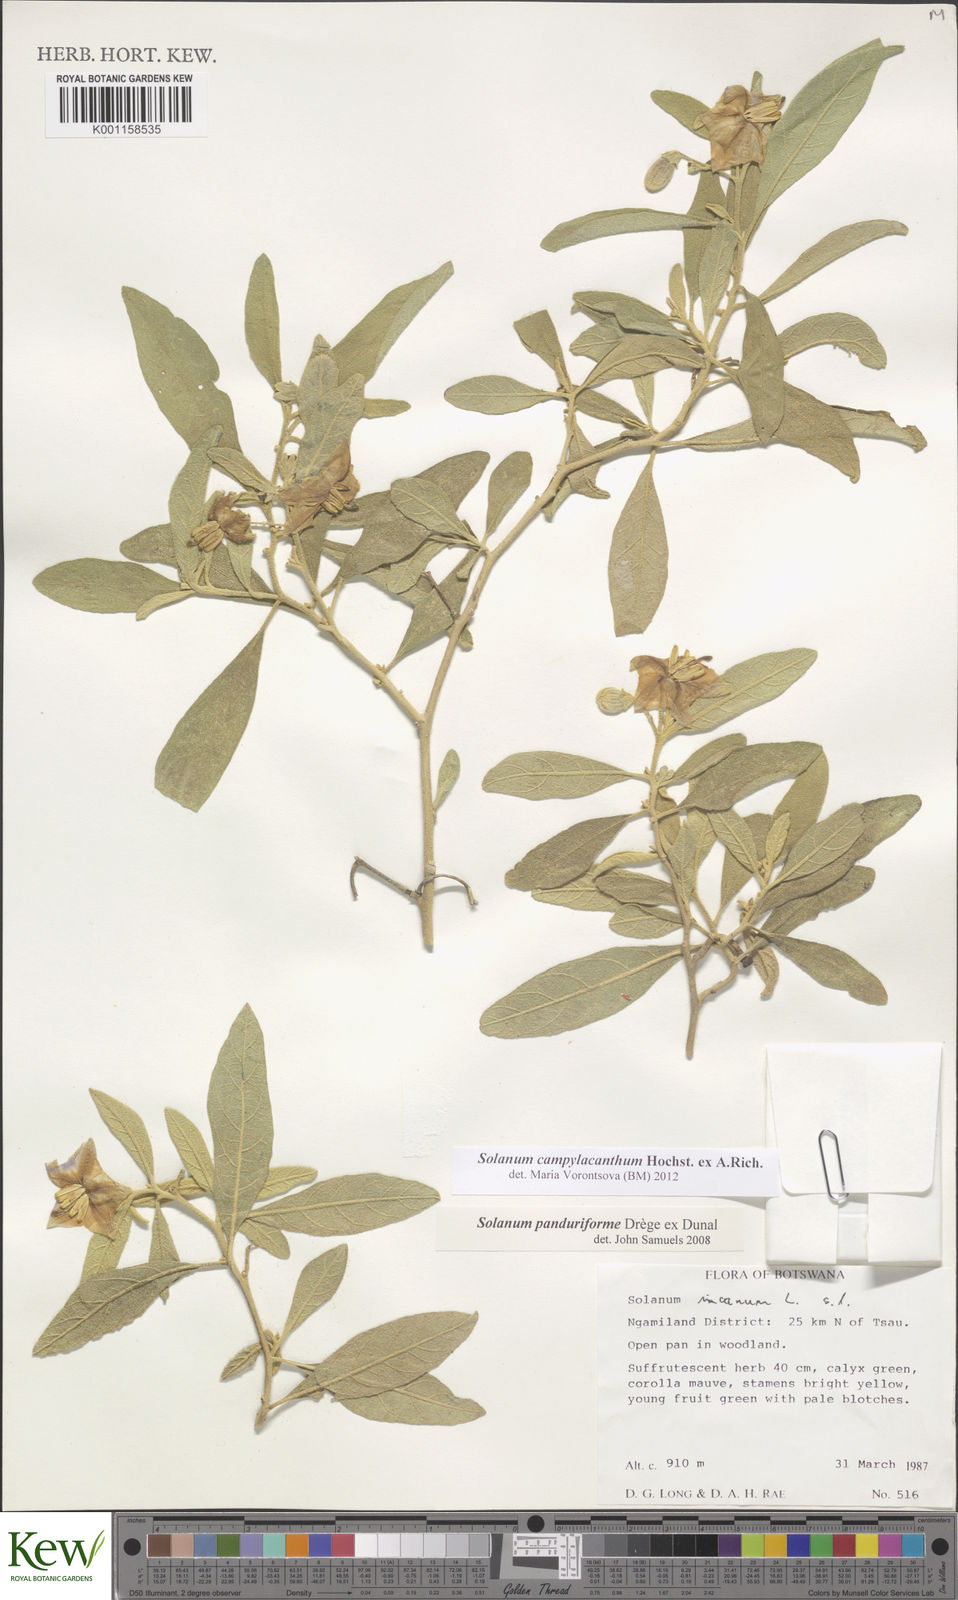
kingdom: Plantae
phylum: Tracheophyta
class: Magnoliopsida
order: Solanales
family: Solanaceae
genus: Solanum
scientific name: Solanum campylacanthum
